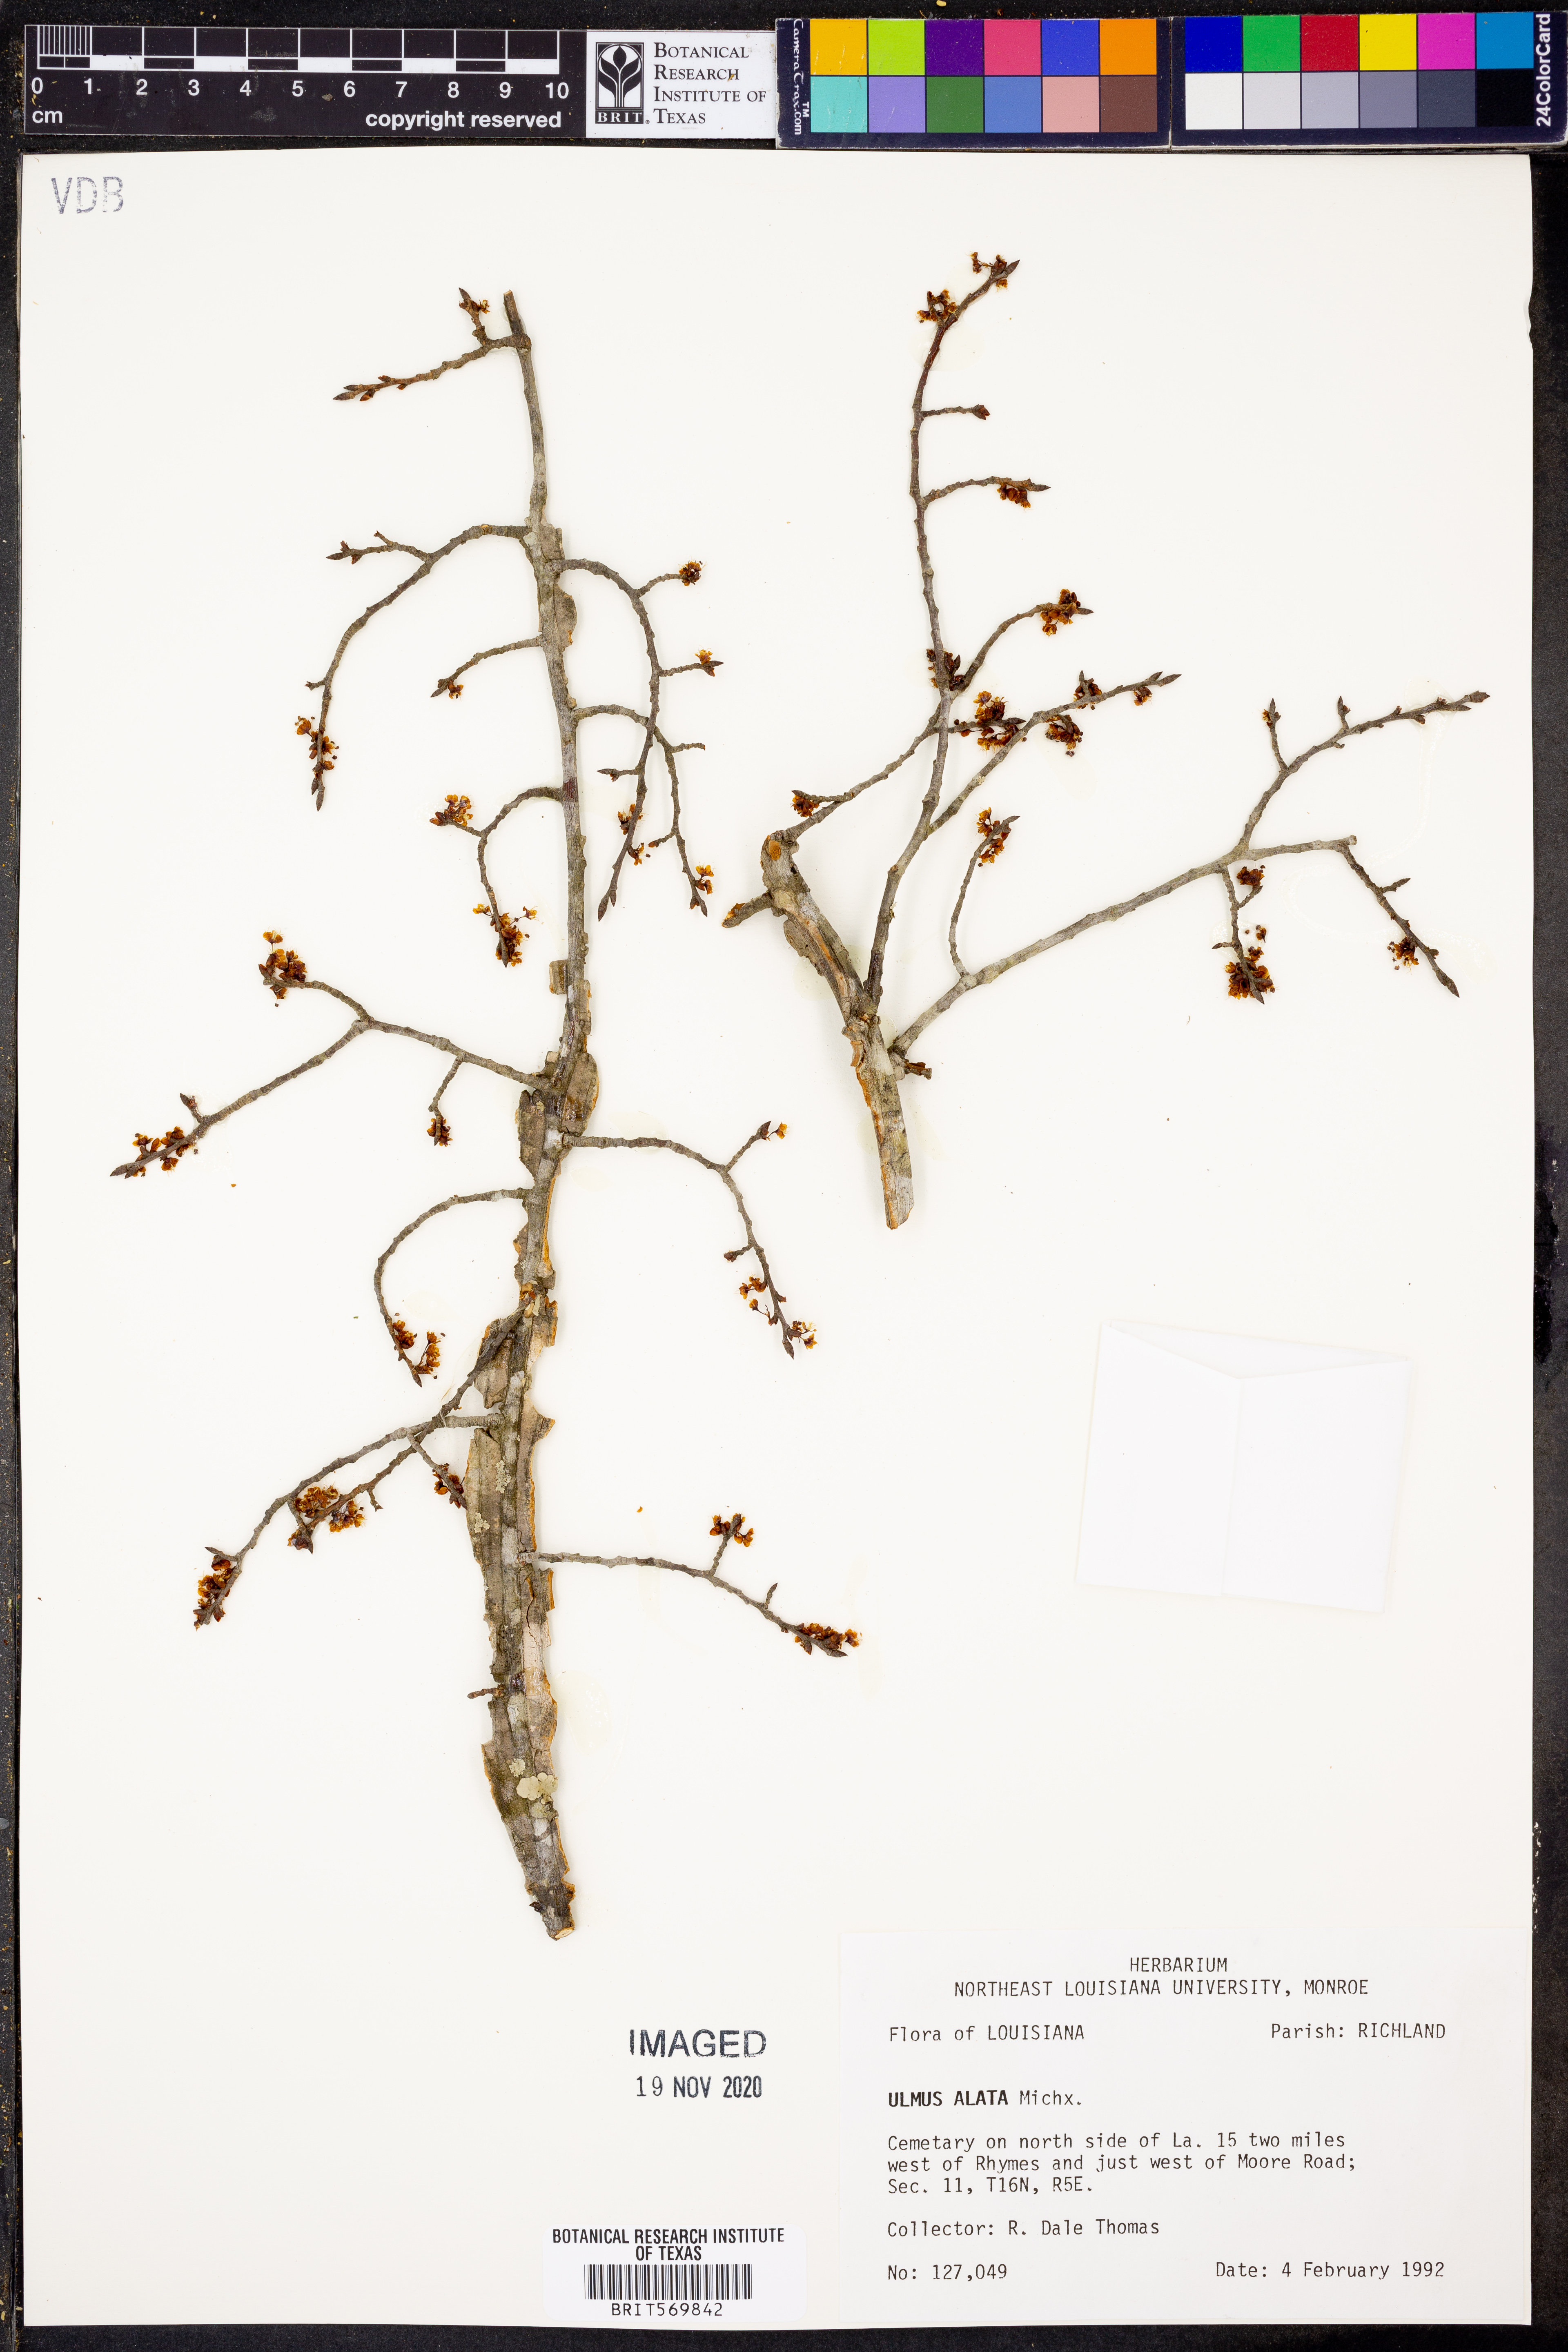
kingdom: Plantae
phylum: Tracheophyta
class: Magnoliopsida
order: Rosales
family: Ulmaceae
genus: Ulmus
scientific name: Ulmus alata
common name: Winged elm
